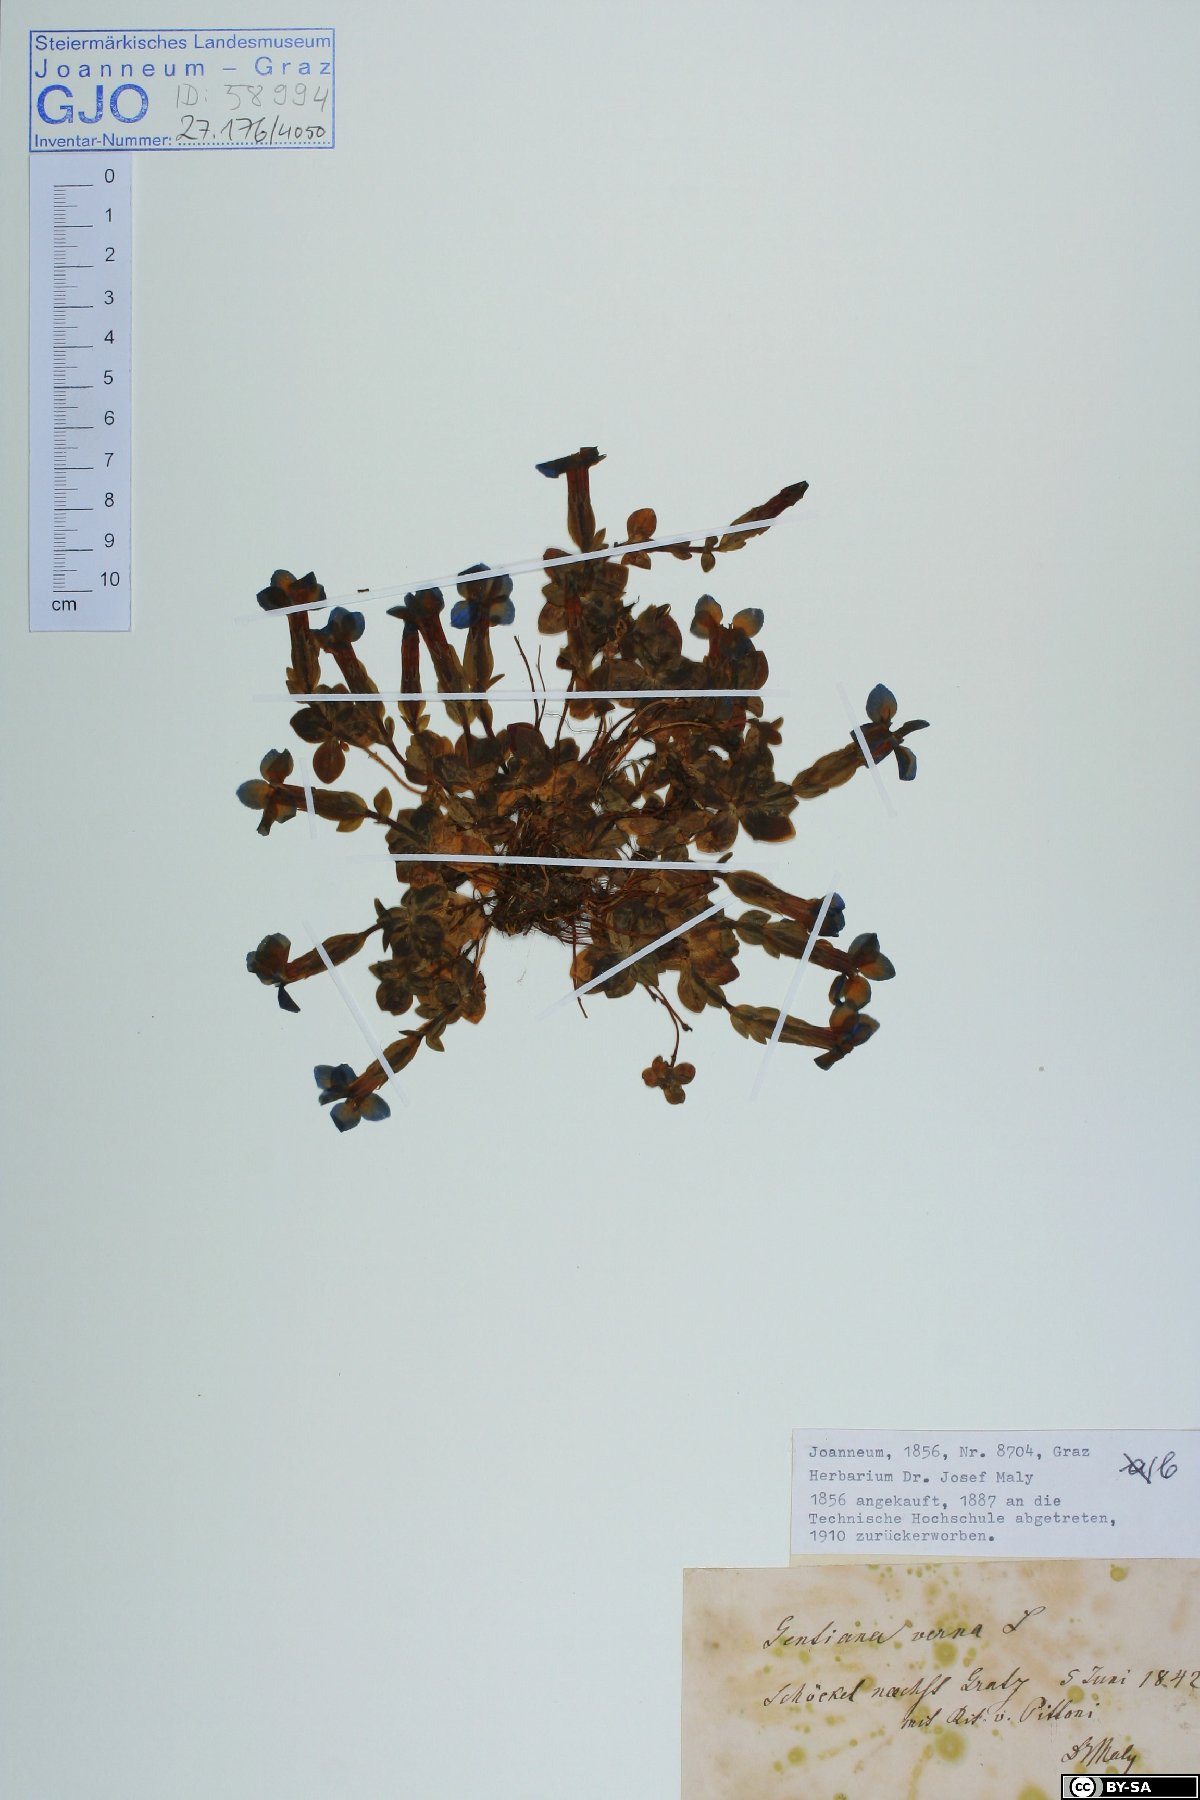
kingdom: Plantae
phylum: Tracheophyta
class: Magnoliopsida
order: Gentianales
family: Gentianaceae
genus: Gentiana
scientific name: Gentiana verna
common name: Spring gentian
